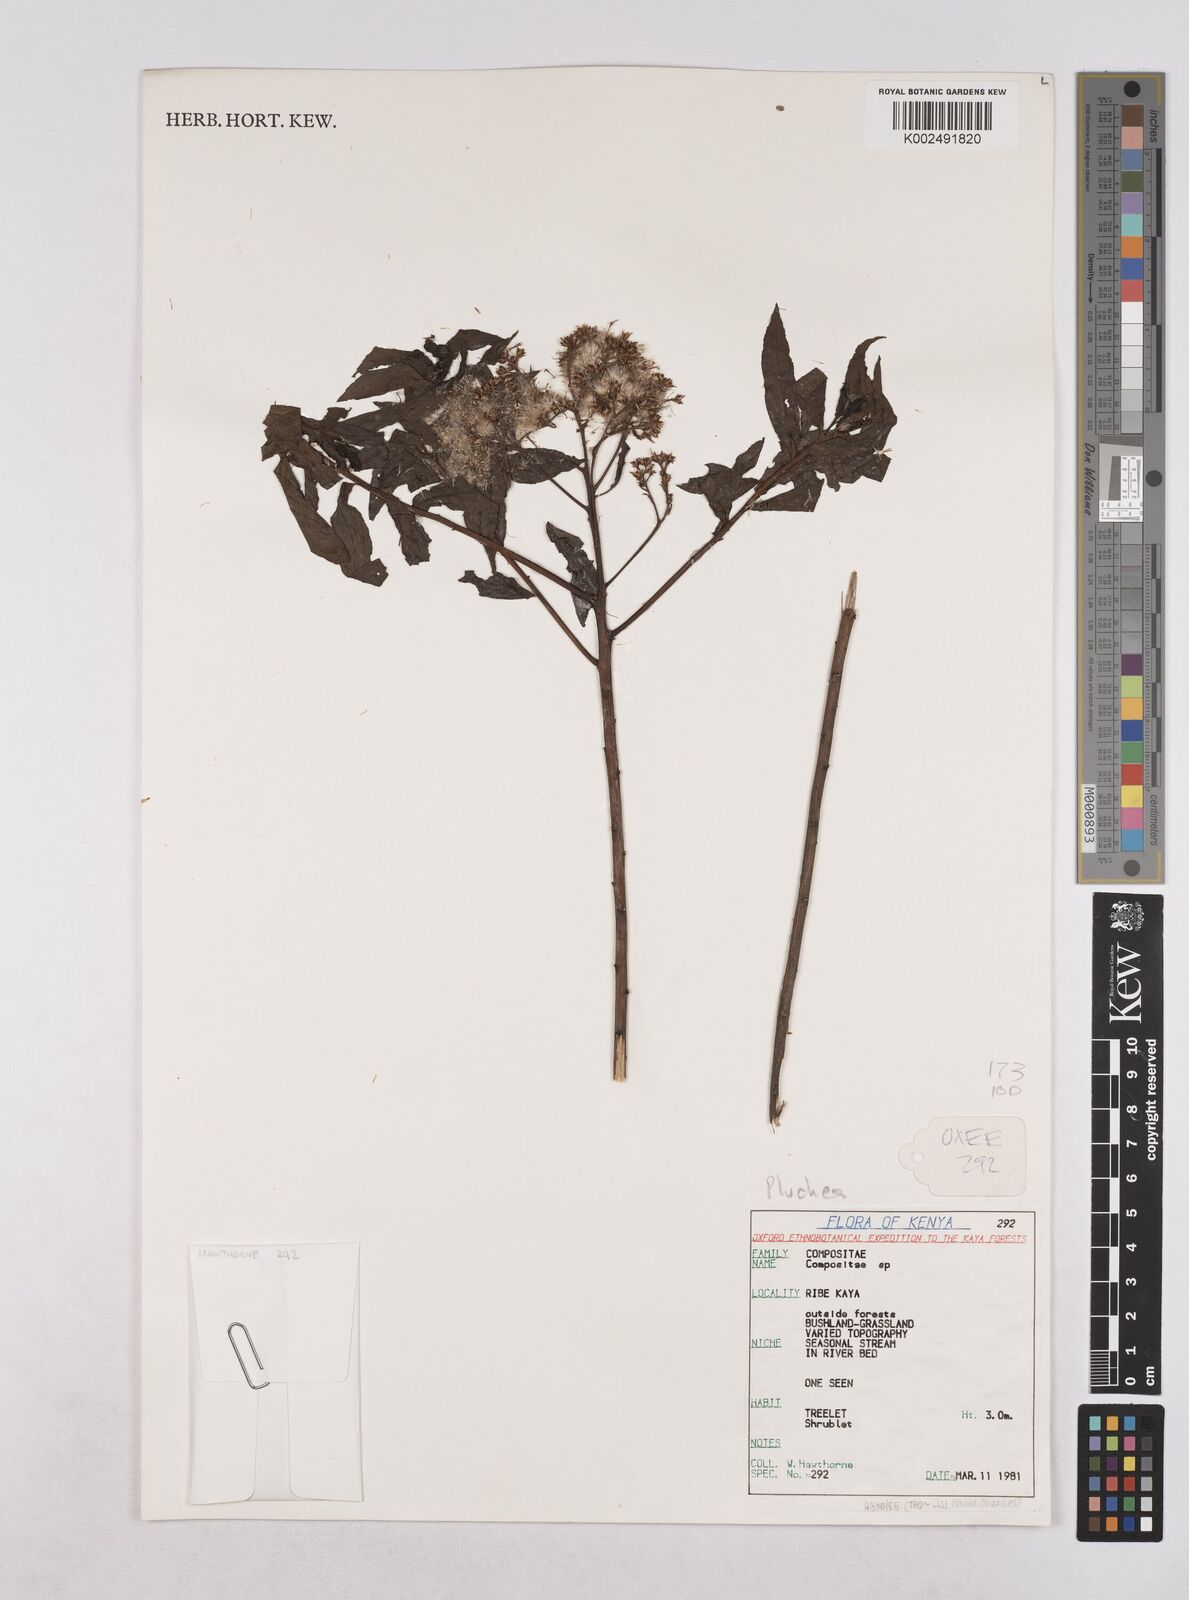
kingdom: Plantae
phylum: Tracheophyta
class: Magnoliopsida
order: Asterales
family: Asteraceae
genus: Pluchea
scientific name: Pluchea dioscoridis
